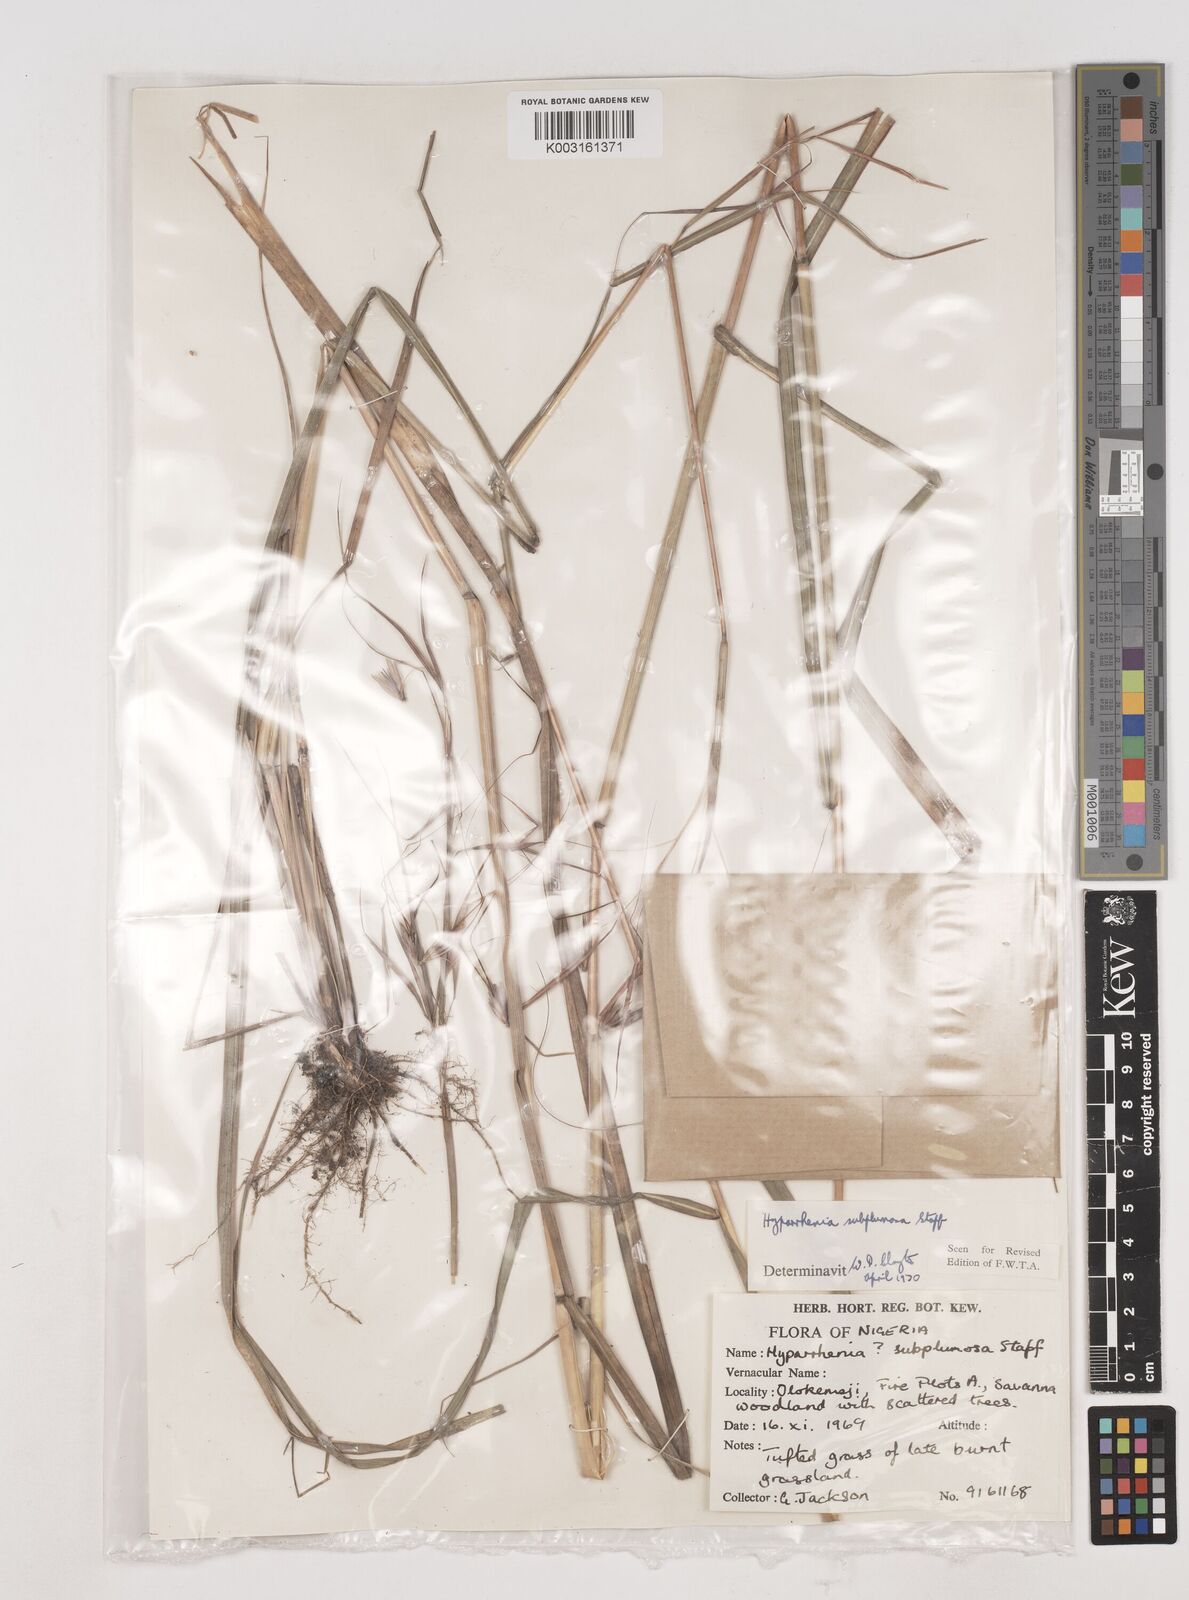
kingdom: Plantae
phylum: Tracheophyta
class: Liliopsida
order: Poales
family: Poaceae
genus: Hyparrhenia
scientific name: Hyparrhenia subplumosa
